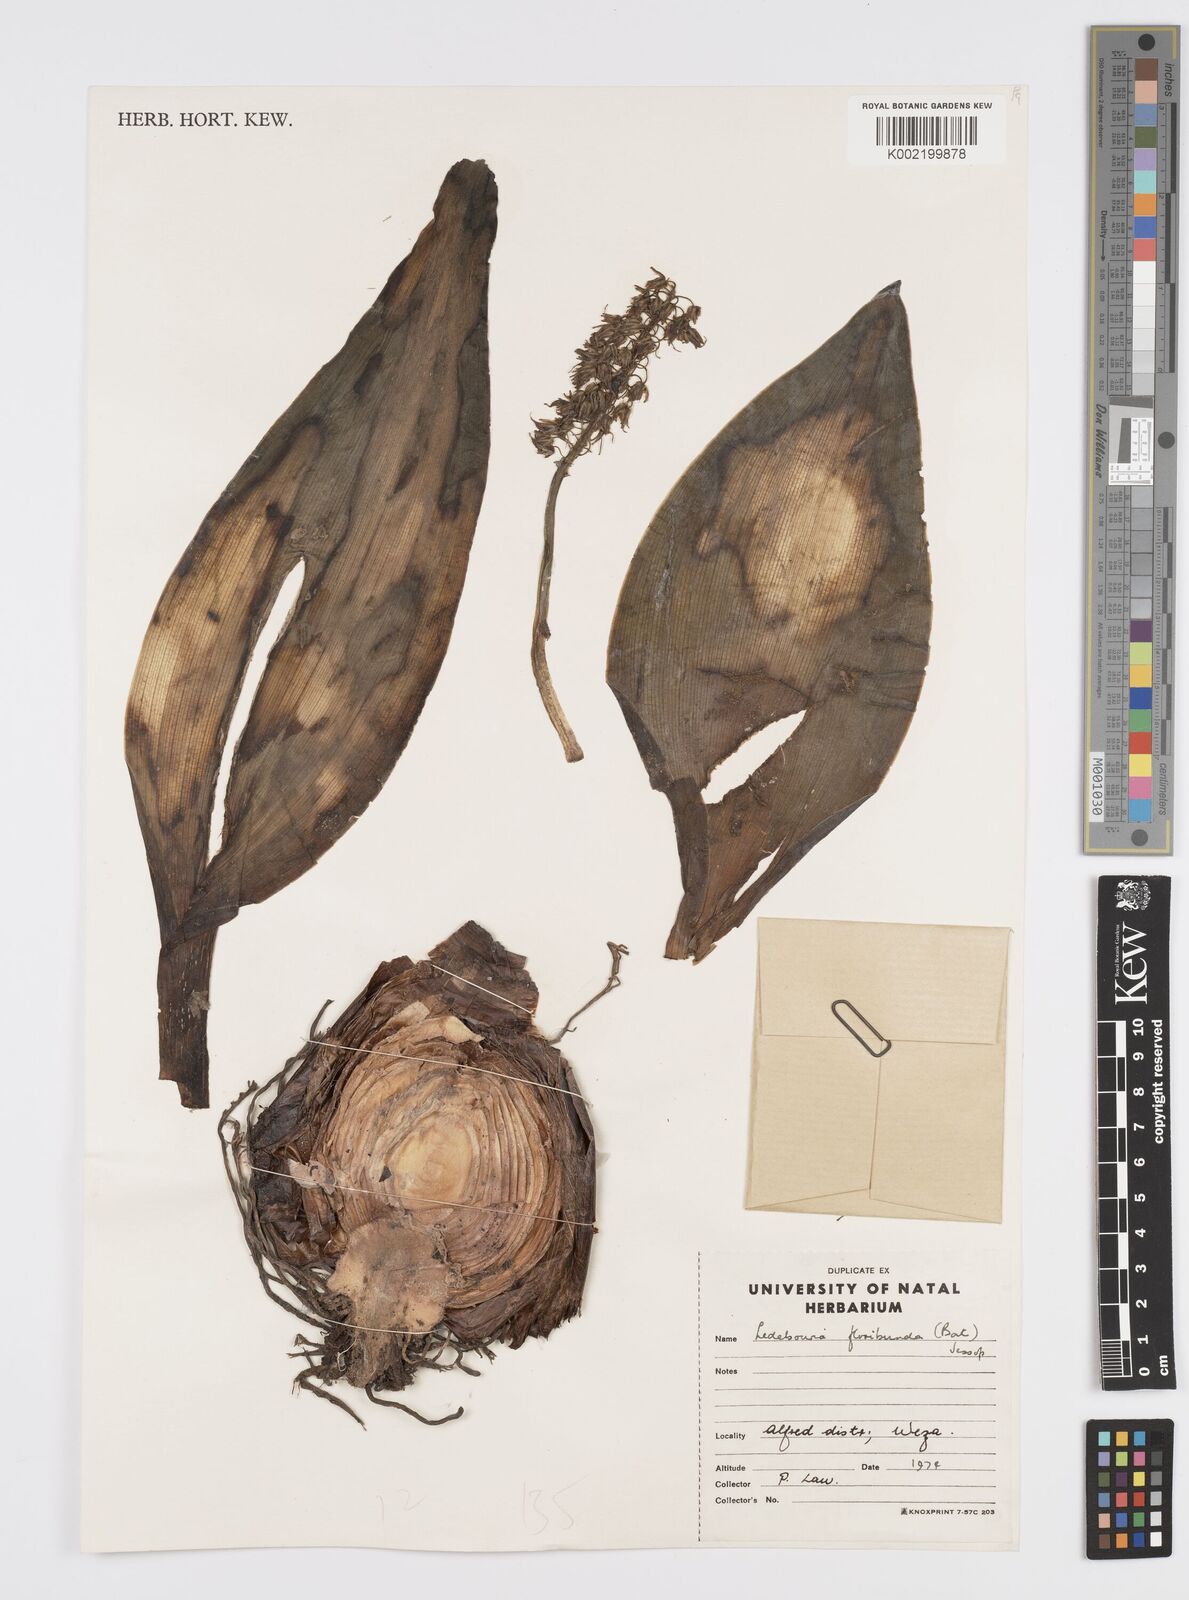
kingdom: Plantae
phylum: Tracheophyta
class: Liliopsida
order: Asparagales
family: Asparagaceae
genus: Ledebouria
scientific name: Ledebouria floribunda
